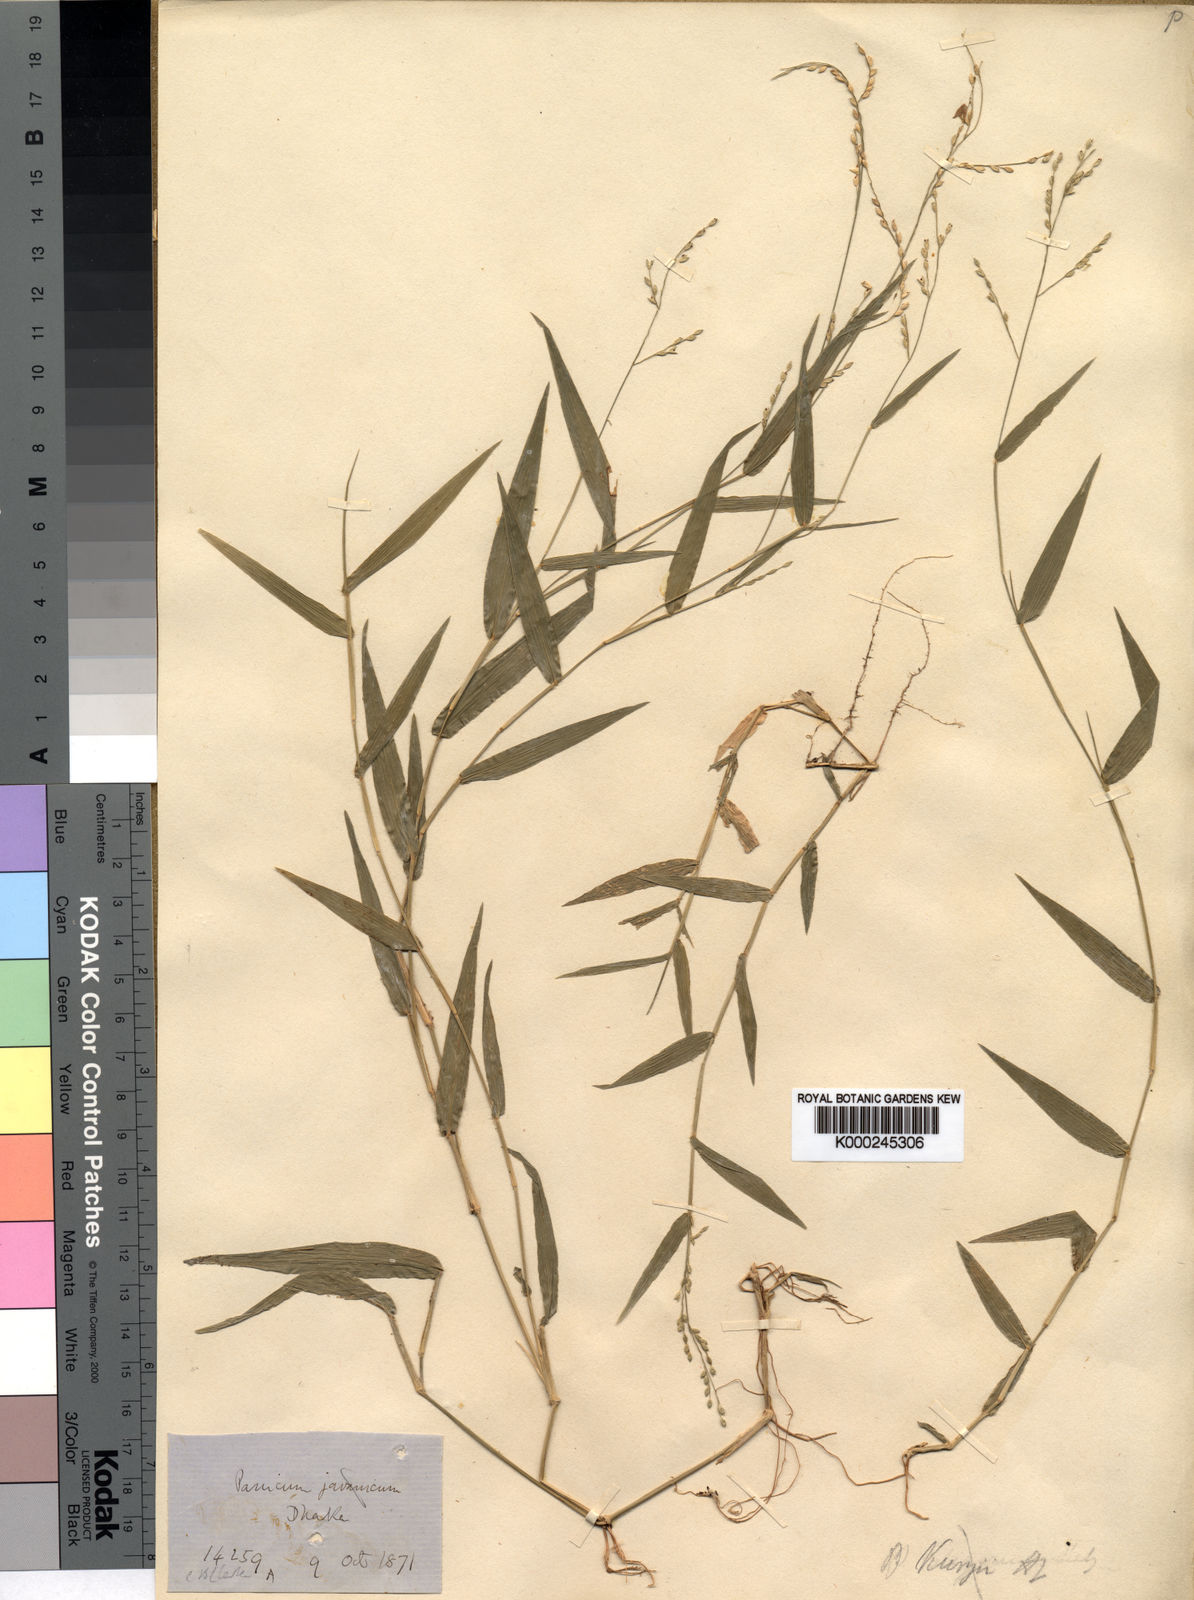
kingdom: Plantae
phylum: Tracheophyta
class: Liliopsida
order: Poales
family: Poaceae
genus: Urochloa
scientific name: Urochloa kurzii
